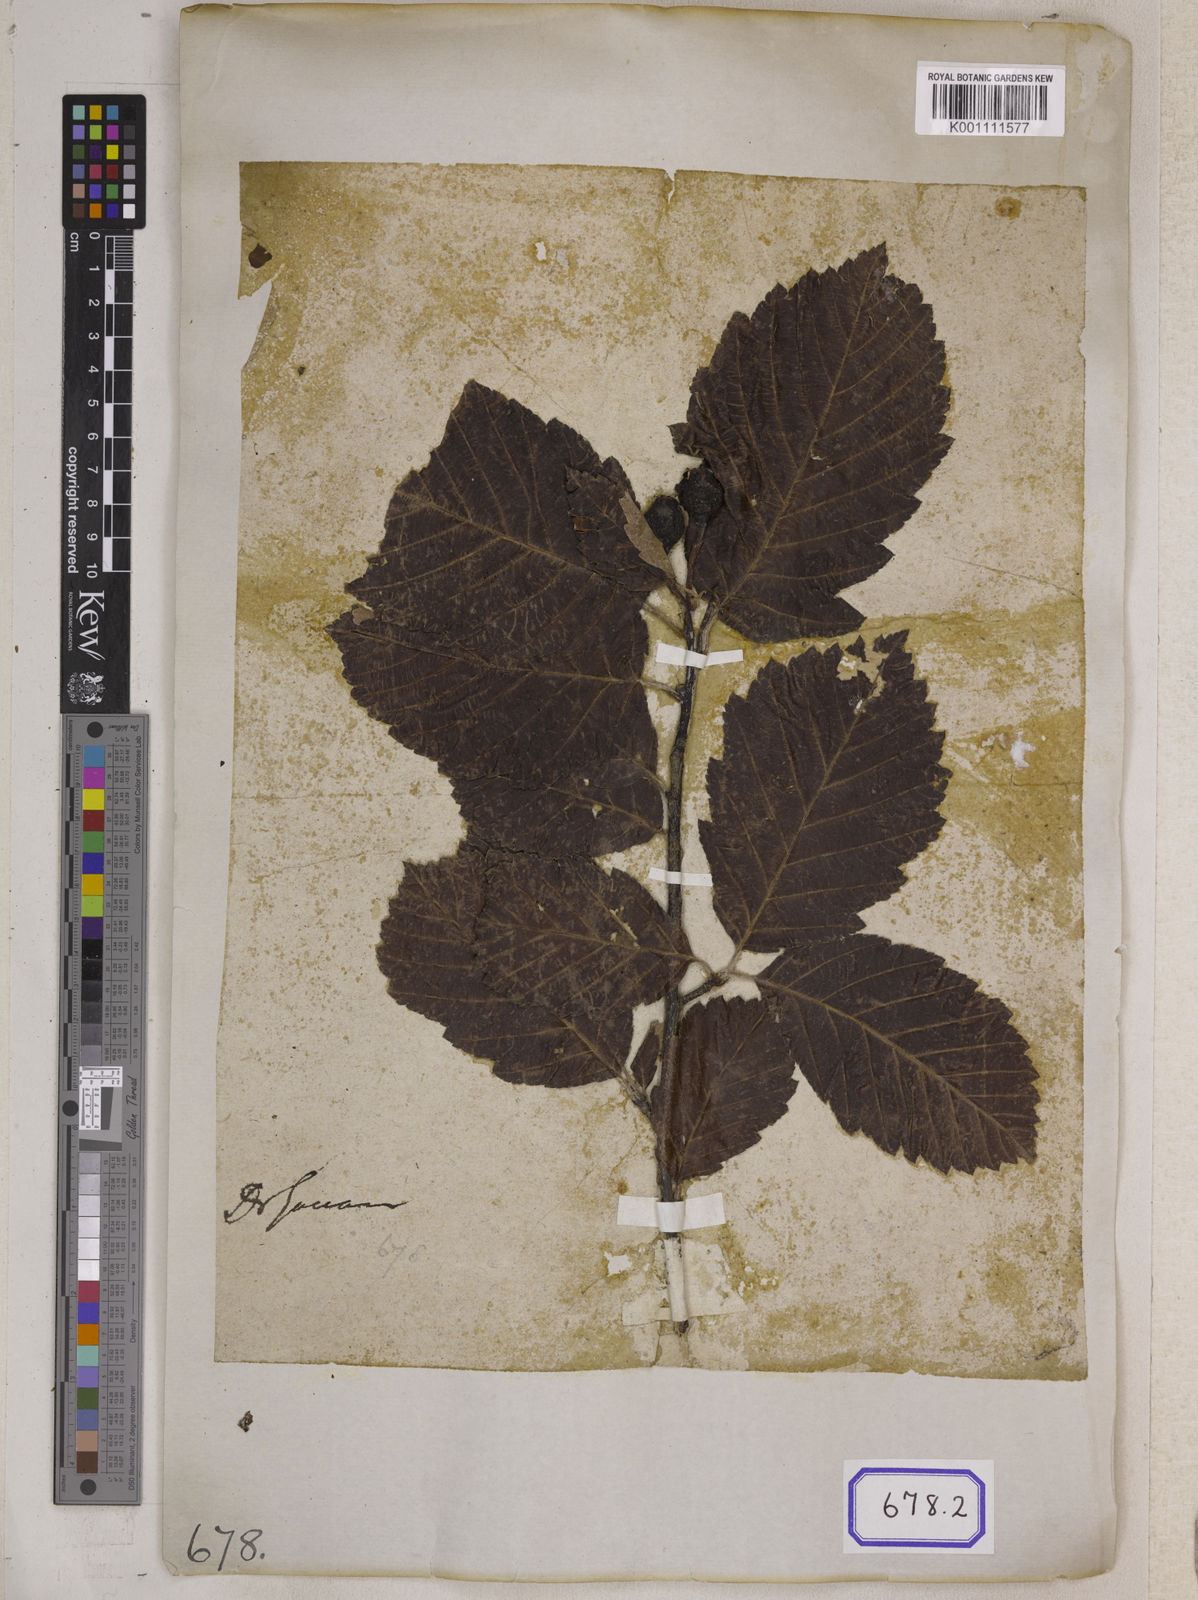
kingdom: Plantae
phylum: Tracheophyta
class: Magnoliopsida
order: Rosales
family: Rosaceae
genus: Pyrus
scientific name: Pyrus kamounensis
